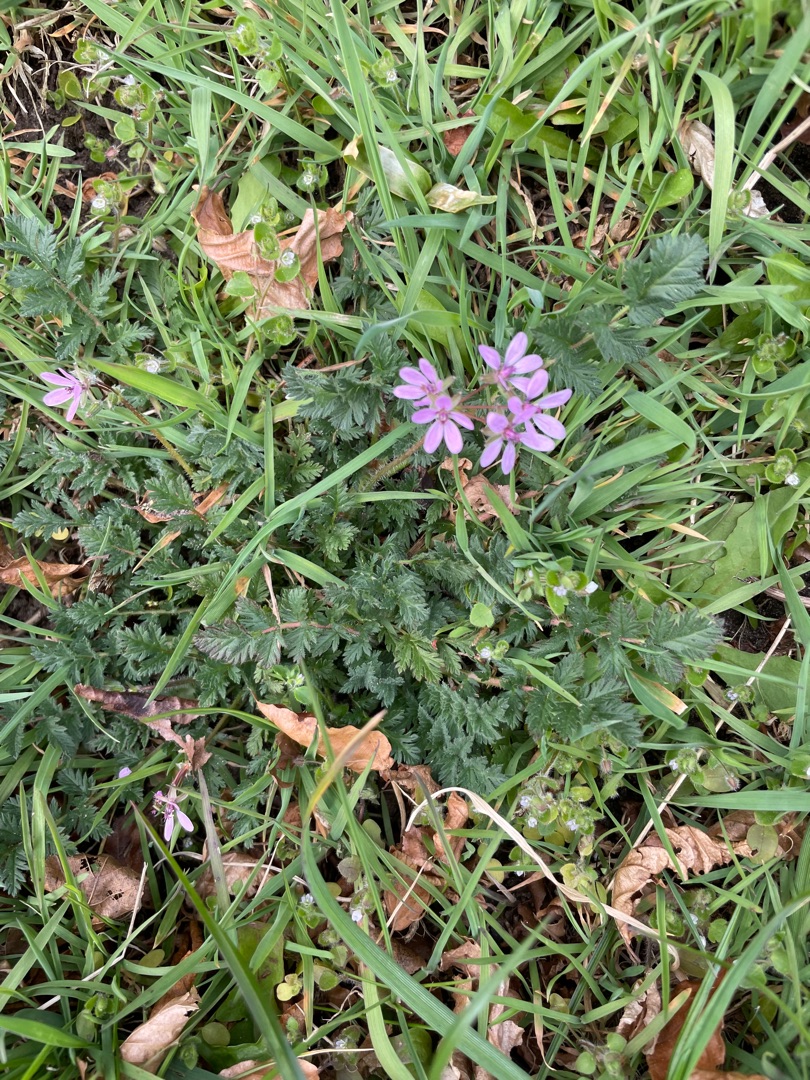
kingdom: Plantae
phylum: Tracheophyta
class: Magnoliopsida
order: Geraniales
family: Geraniaceae
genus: Erodium
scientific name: Erodium cicutarium
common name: Hejrenæb
